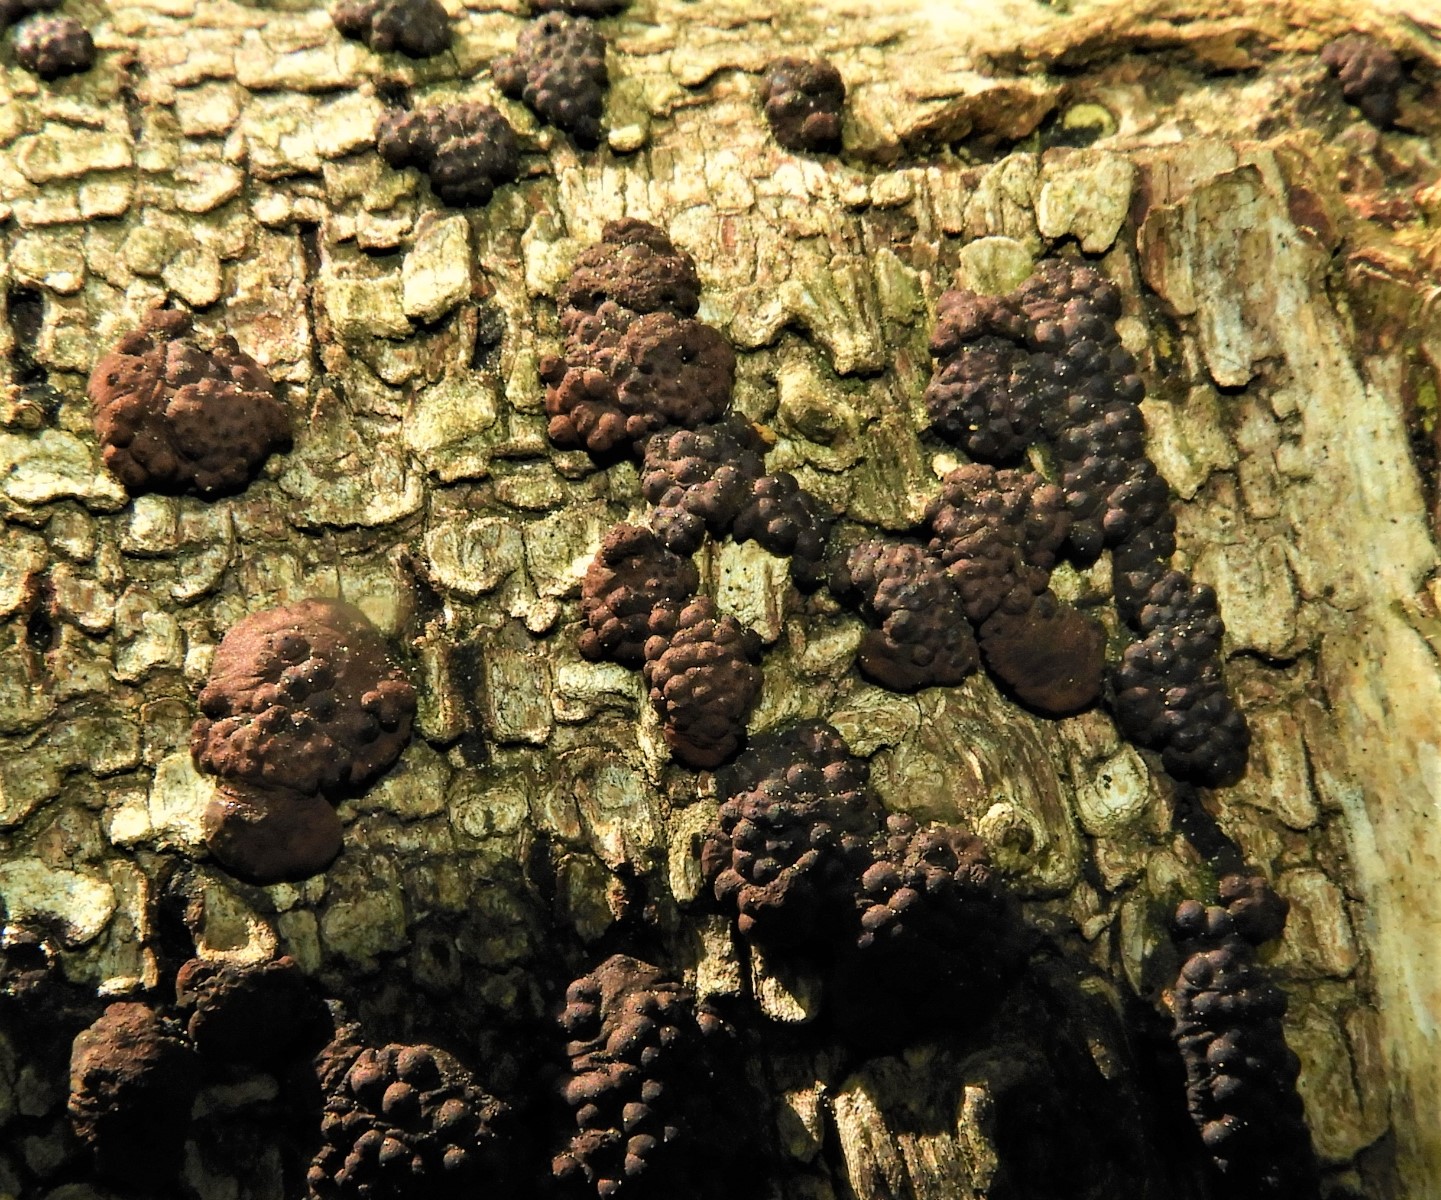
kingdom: Fungi
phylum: Ascomycota
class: Sordariomycetes
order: Xylariales
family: Hypoxylaceae
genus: Jackrogersella
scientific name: Jackrogersella multiformis
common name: foranderlig kulbær
